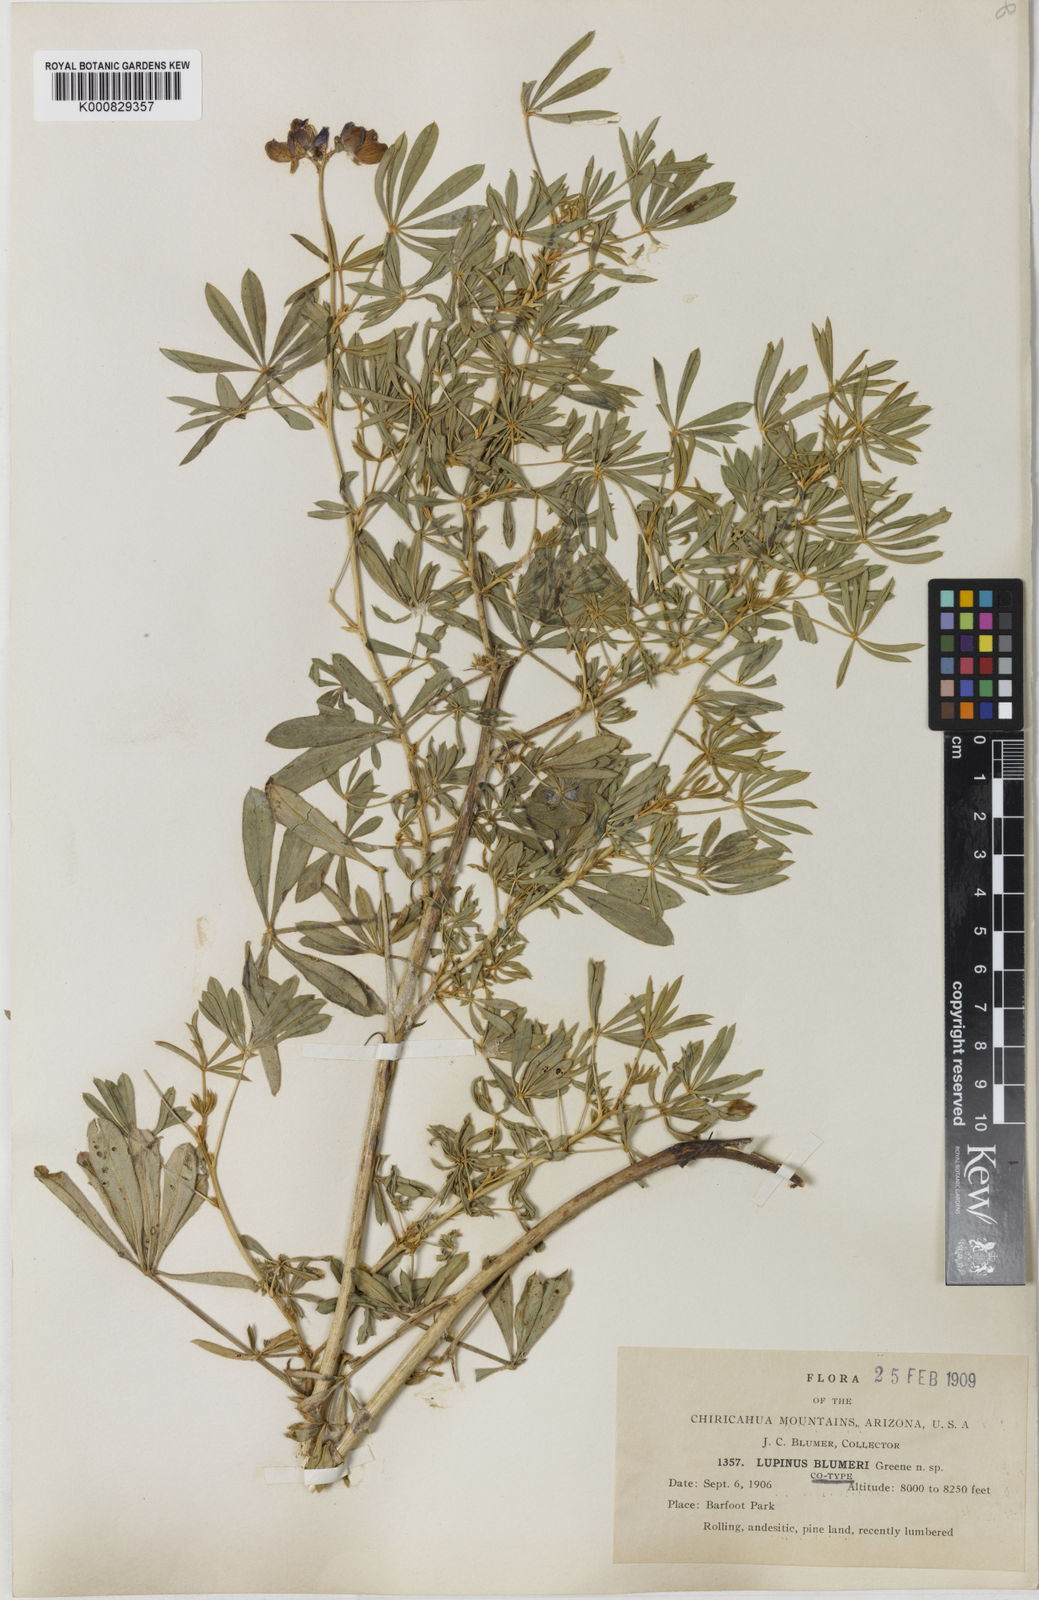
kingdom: Plantae
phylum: Tracheophyta
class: Magnoliopsida
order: Fabales
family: Fabaceae
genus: Lupinus
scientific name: Lupinus neomexicanus
